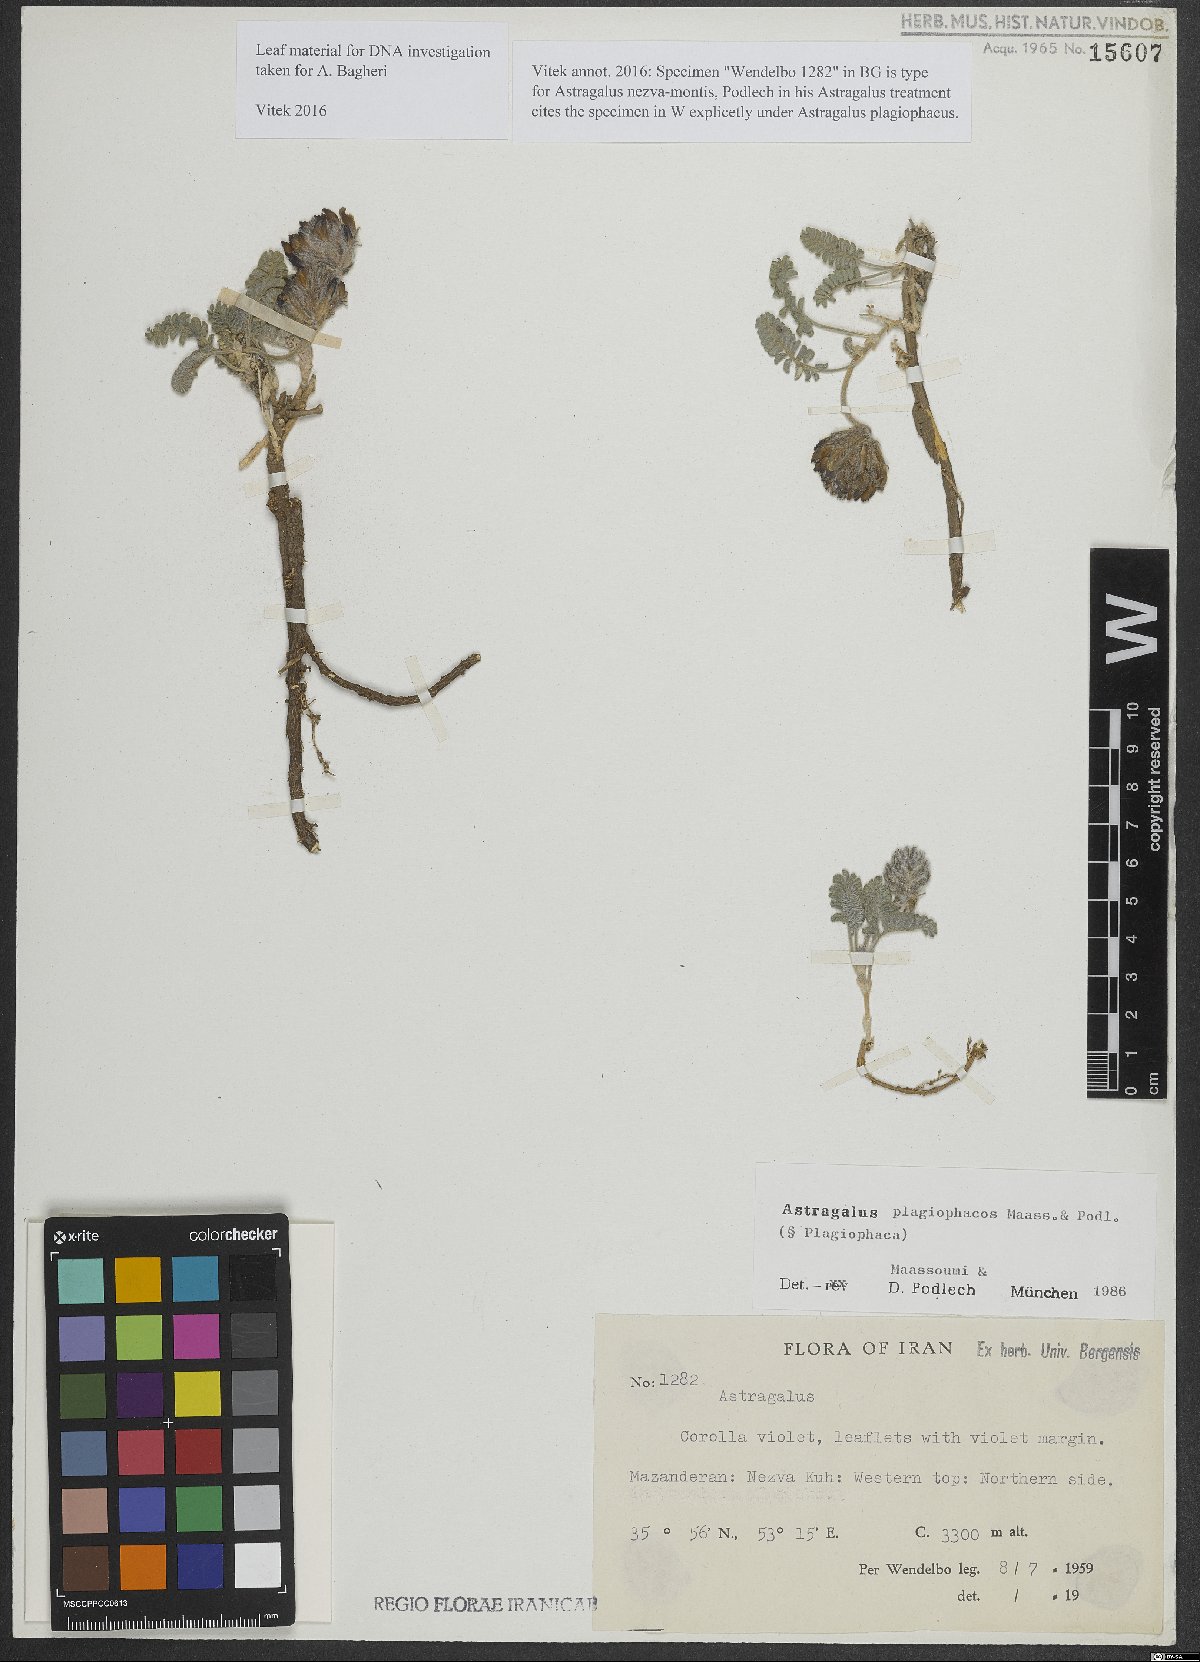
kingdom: Plantae
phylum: Tracheophyta
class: Magnoliopsida
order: Fabales
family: Fabaceae
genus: Astragalus
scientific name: Astragalus plagiophacos
